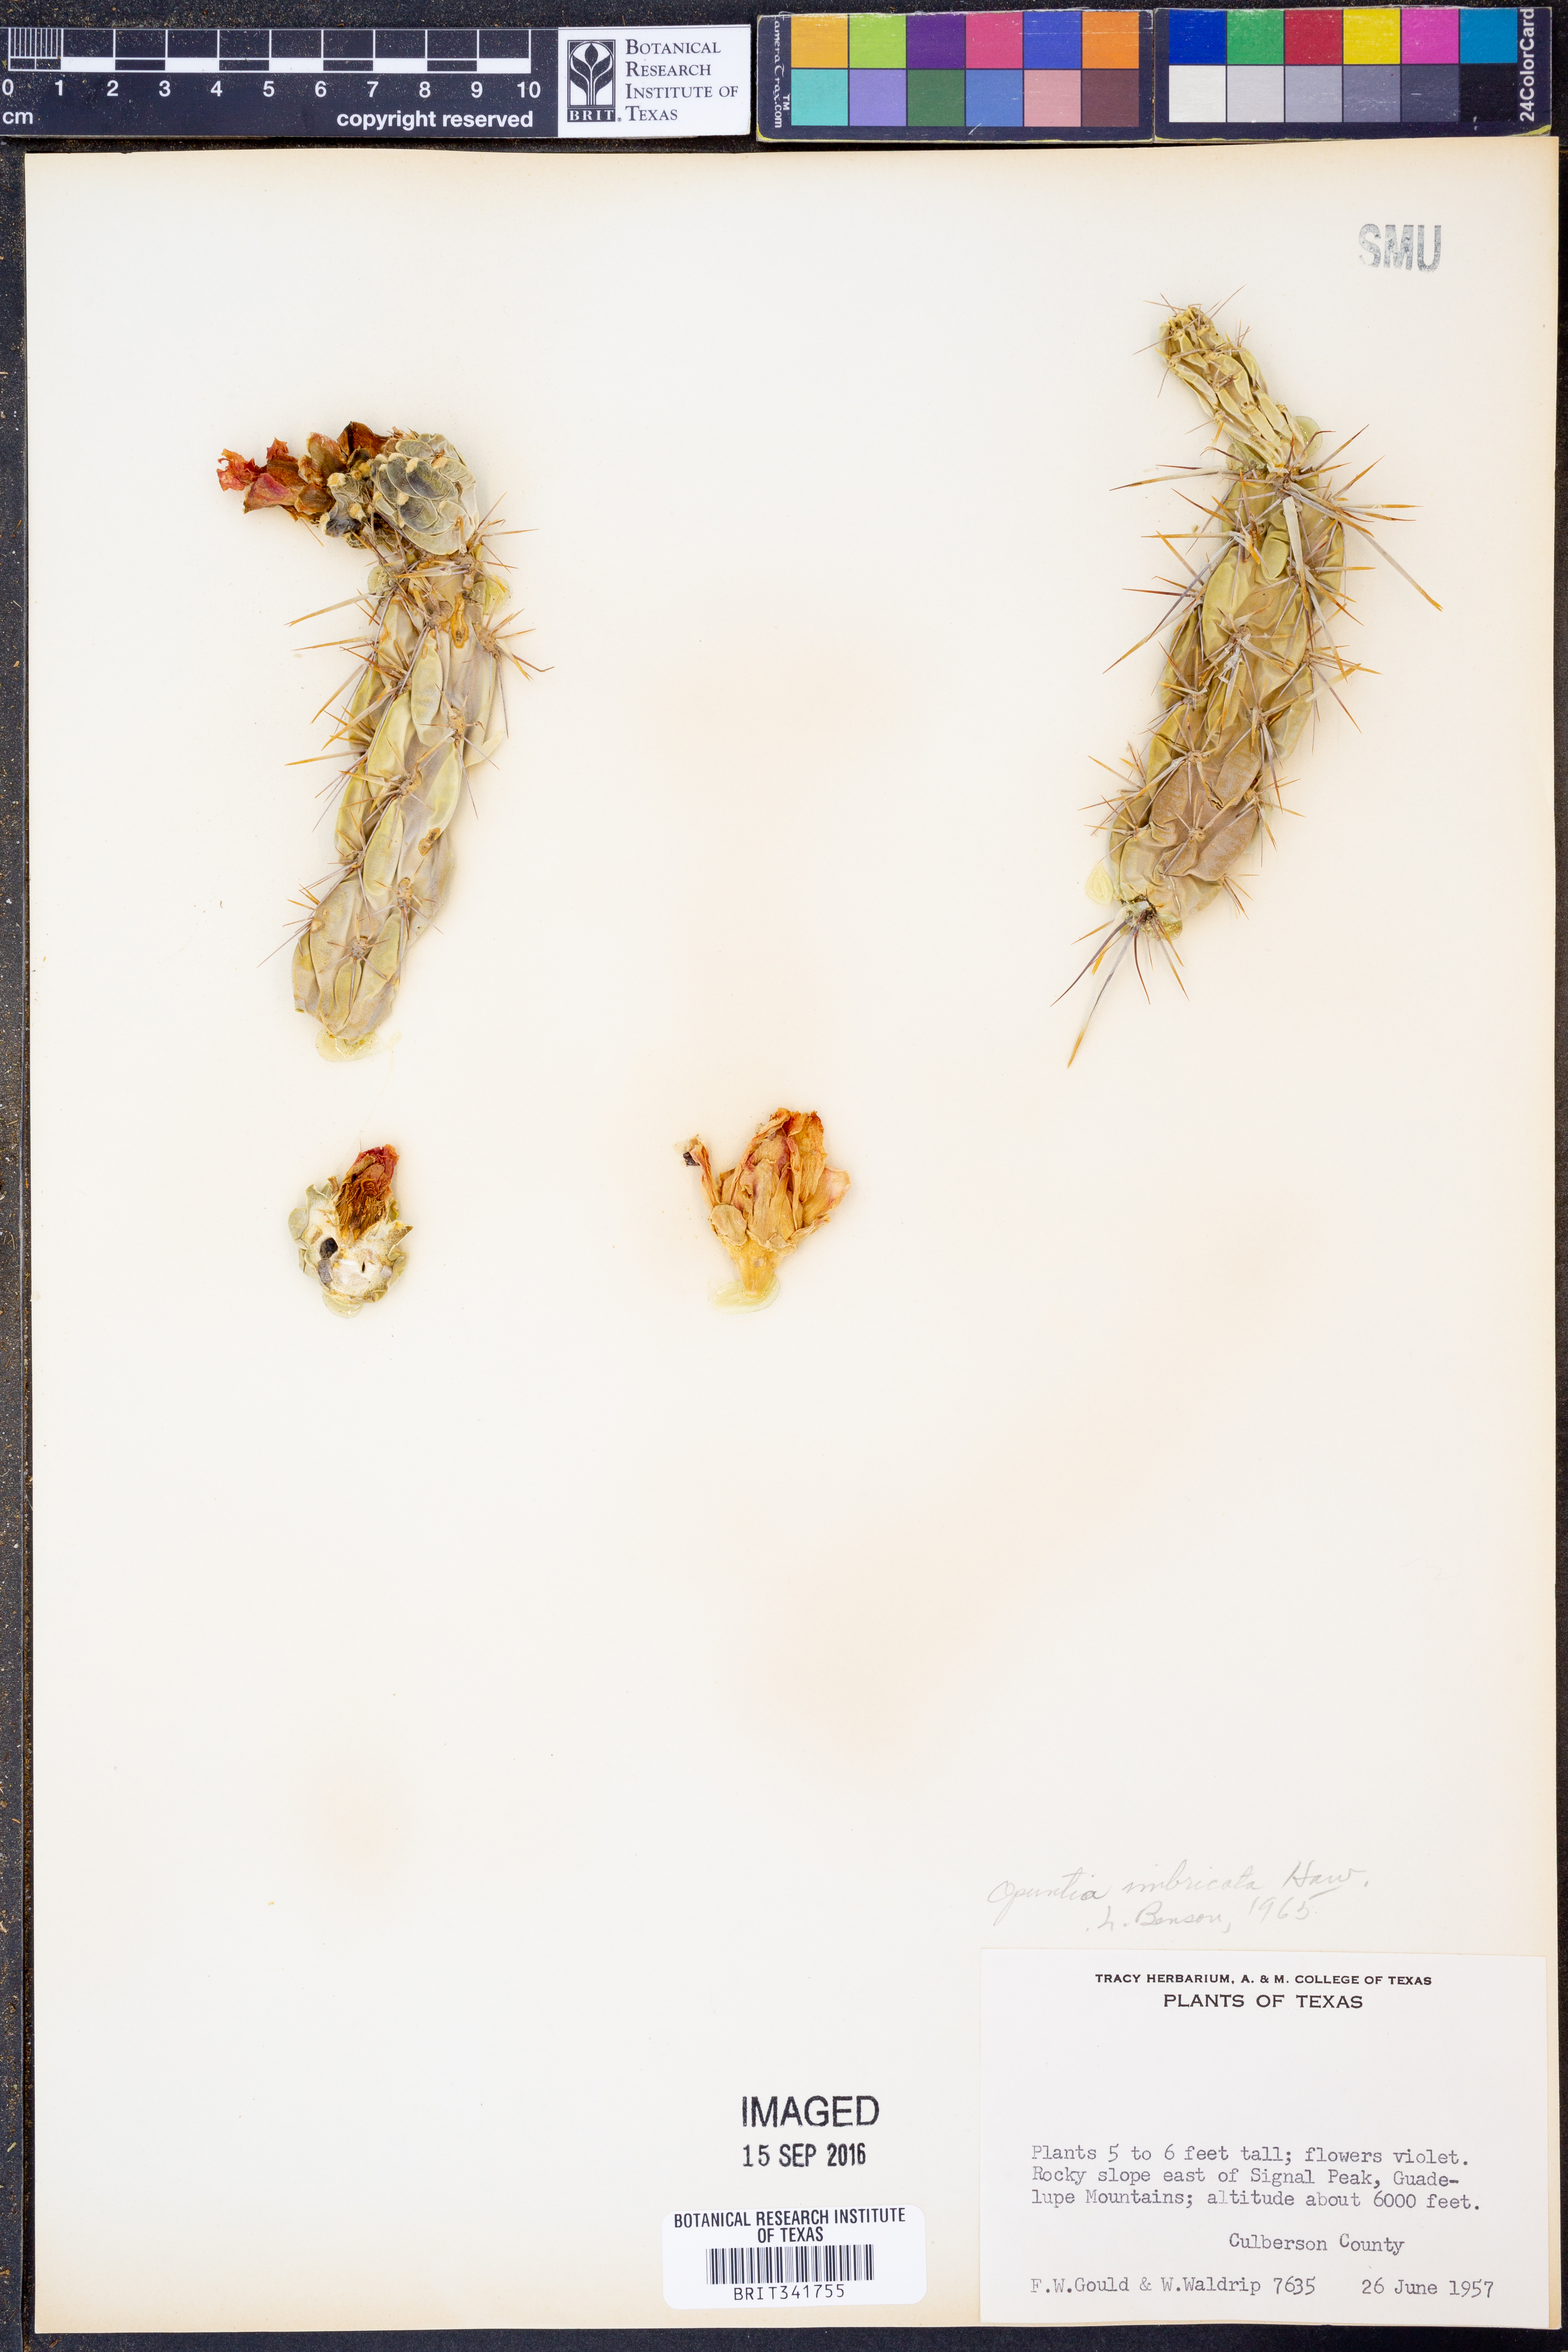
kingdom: Plantae
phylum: Tracheophyta
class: Magnoliopsida
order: Caryophyllales
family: Cactaceae
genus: Cylindropuntia
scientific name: Cylindropuntia imbricata
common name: Candelabrum cactus
